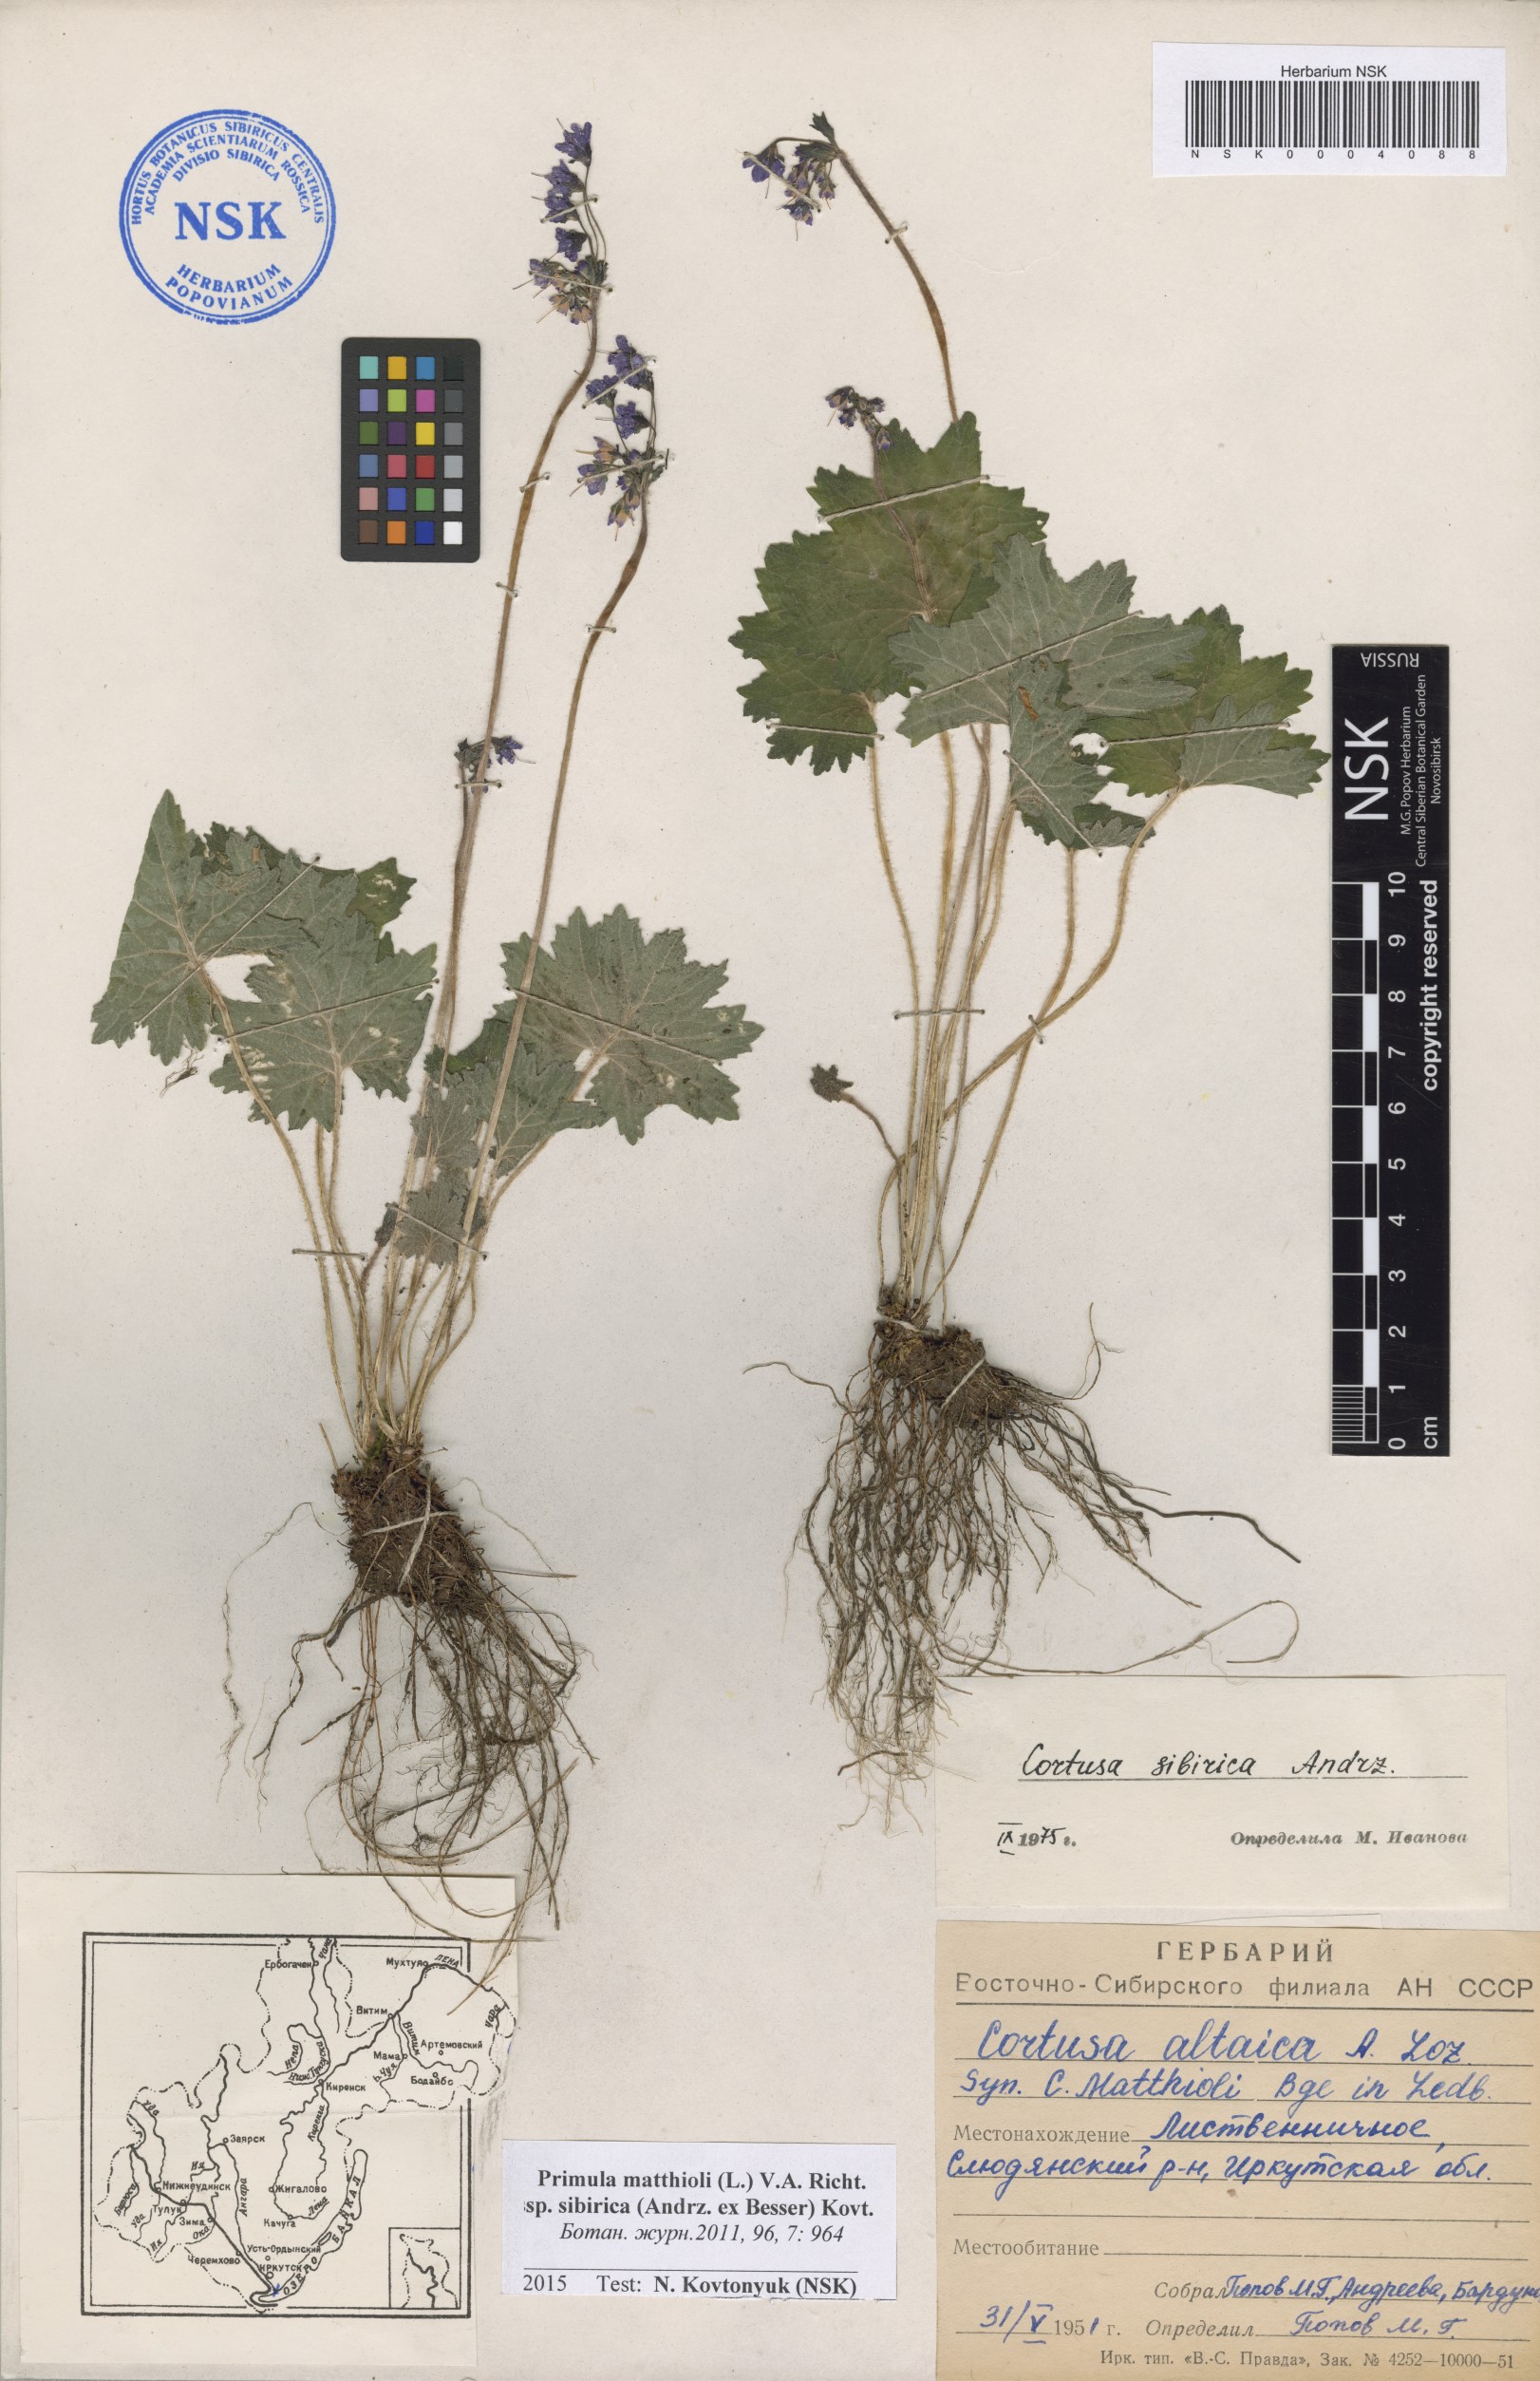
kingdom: Plantae
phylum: Tracheophyta
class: Magnoliopsida
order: Ericales
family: Primulaceae
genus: Primula
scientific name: Primula matthioli
